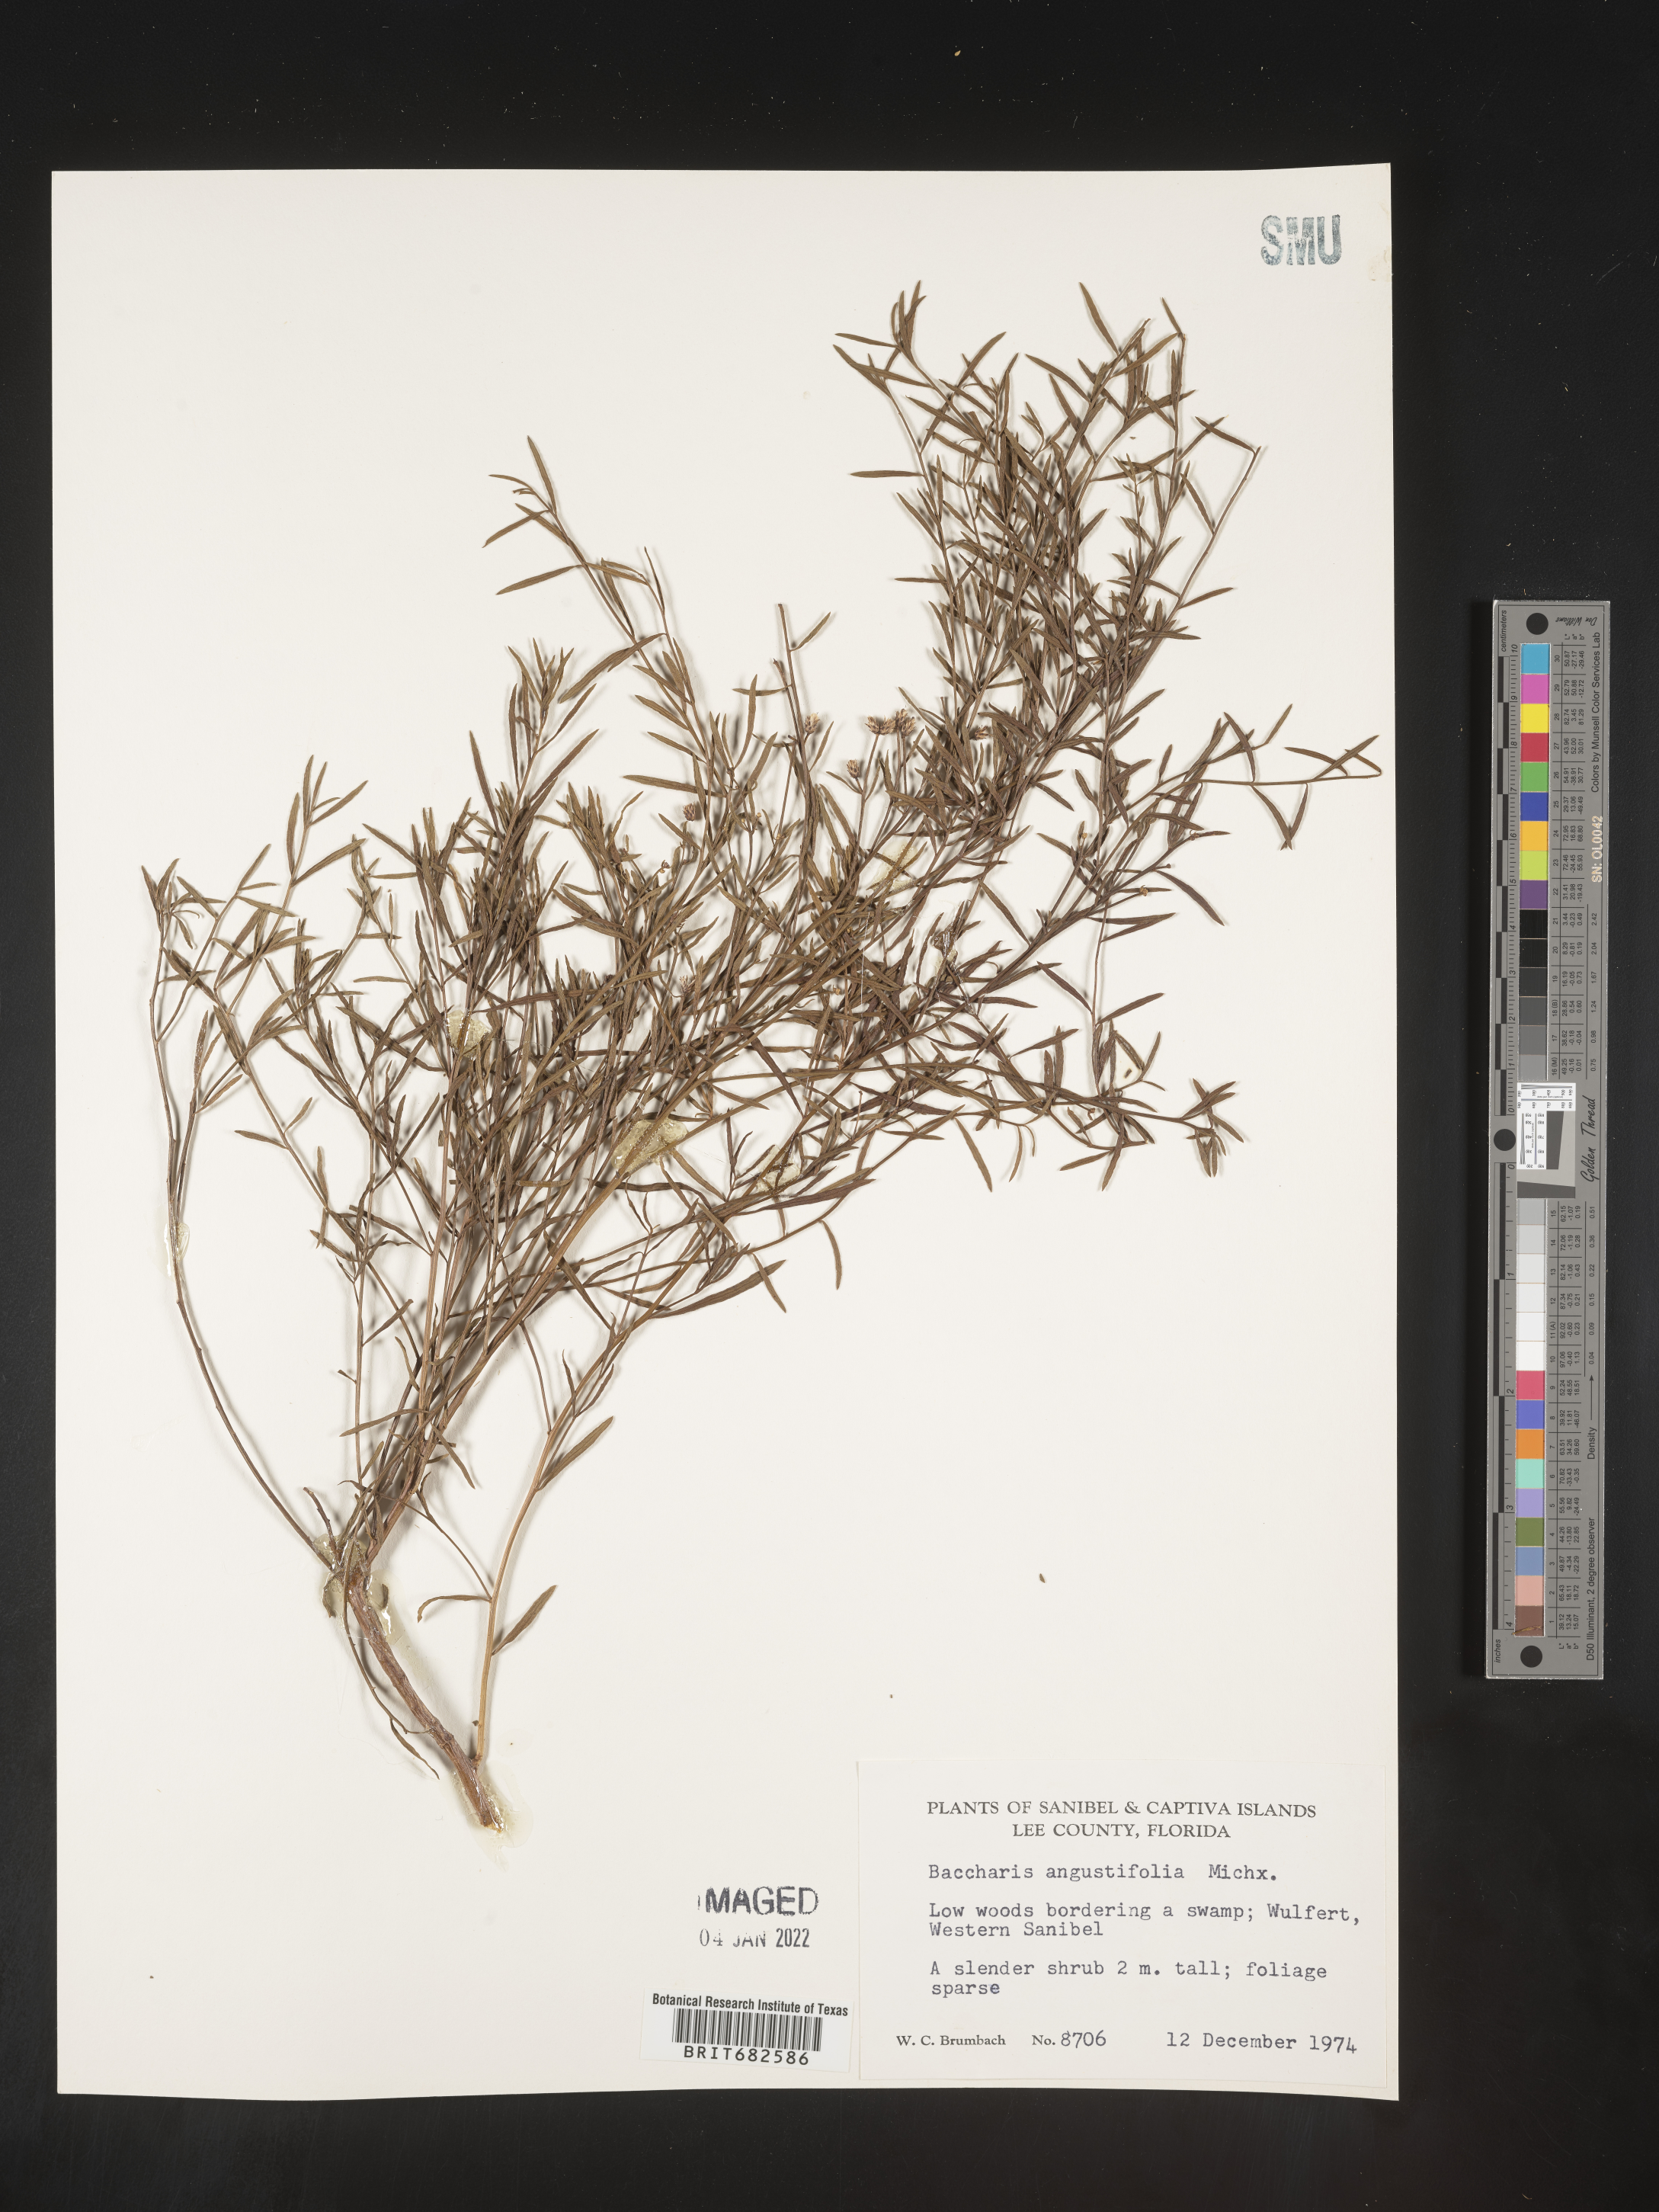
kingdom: Plantae
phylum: Tracheophyta
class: Magnoliopsida
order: Asterales
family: Asteraceae
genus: Baccharis
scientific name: Baccharis angustifolia
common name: Narrow-leaf baccharis
